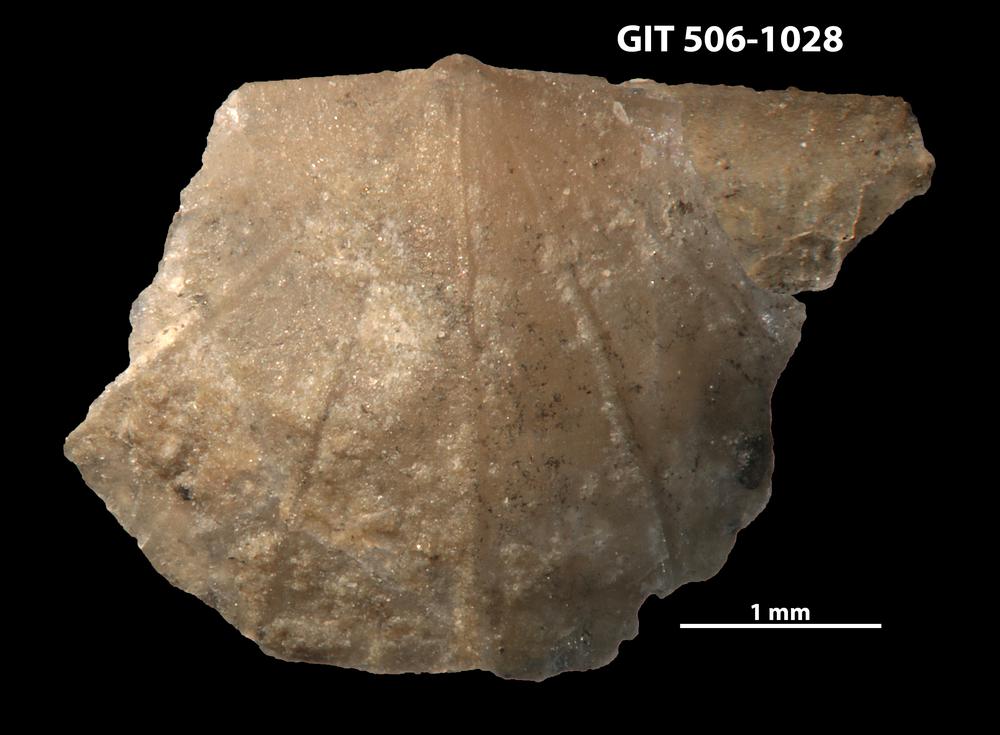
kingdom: Animalia
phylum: Brachiopoda
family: Leptellinidae
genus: Leangella
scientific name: Leangella Leptaena segmentum
